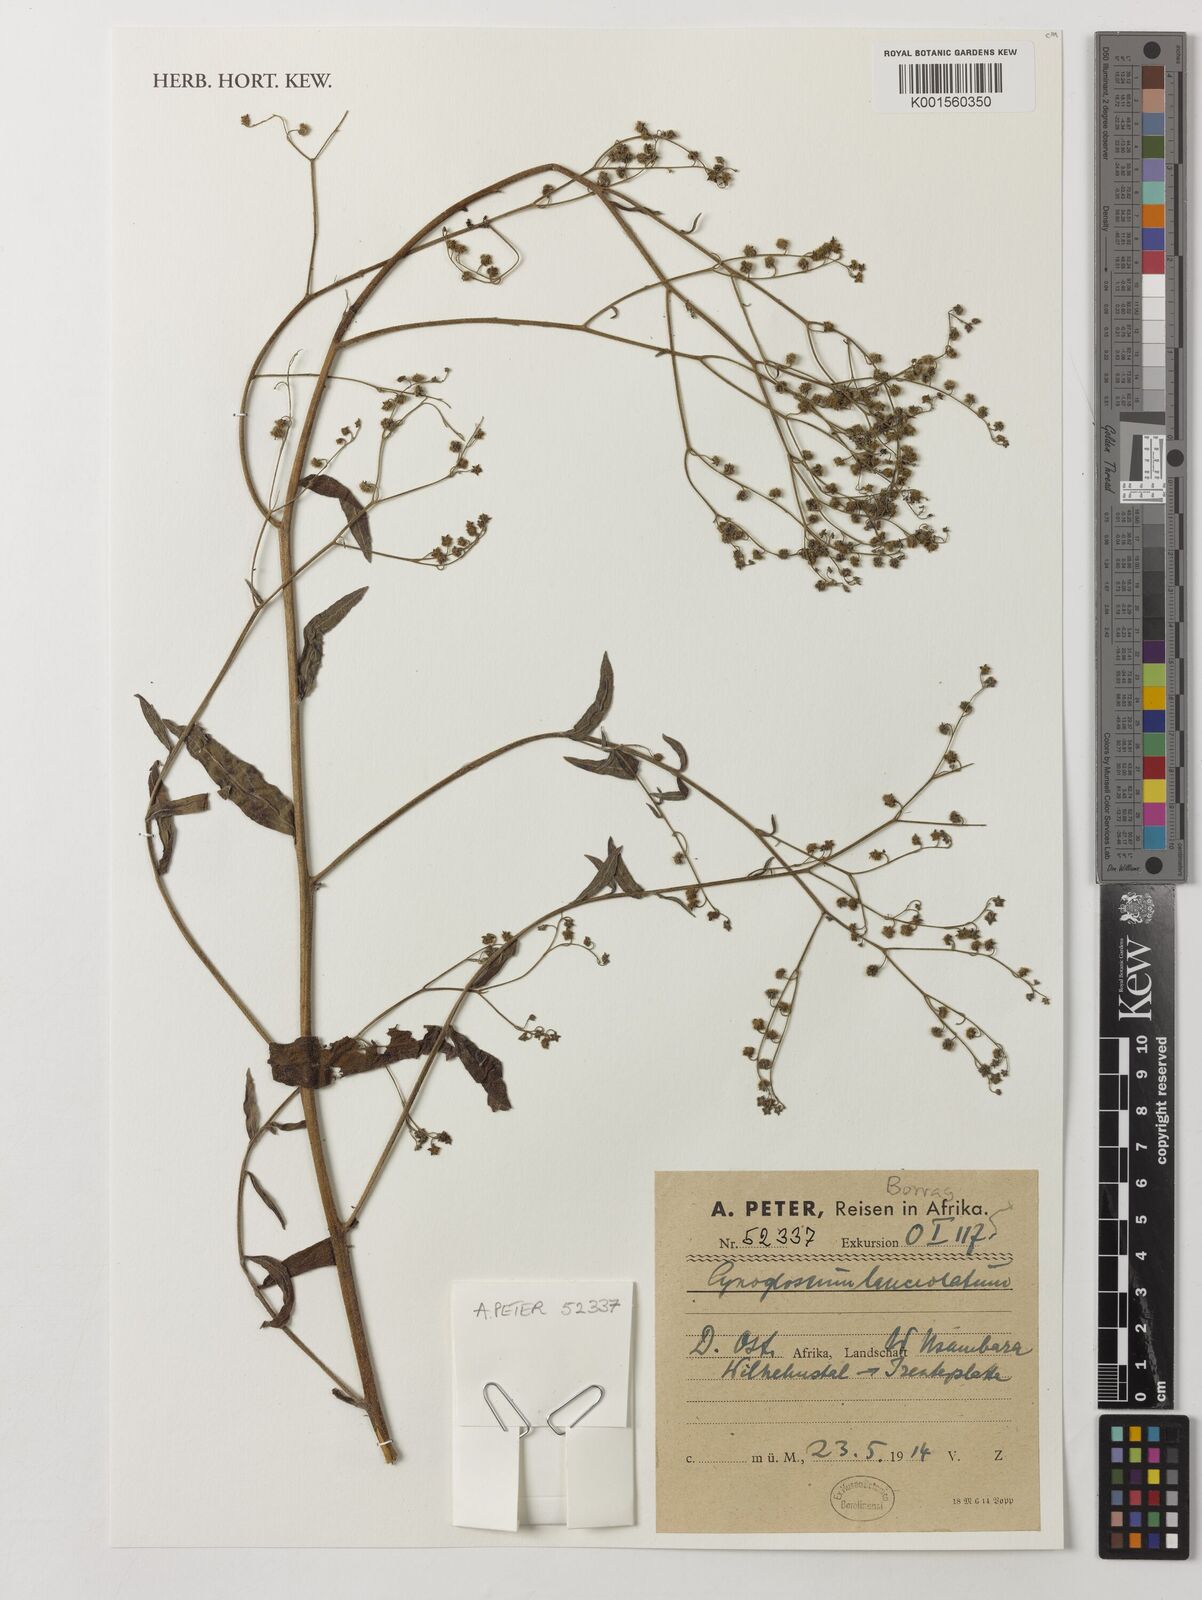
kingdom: Plantae
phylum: Tracheophyta
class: Magnoliopsida
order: Boraginales
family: Boraginaceae
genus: Paracynoglossum
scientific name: Paracynoglossum lanceolatum
